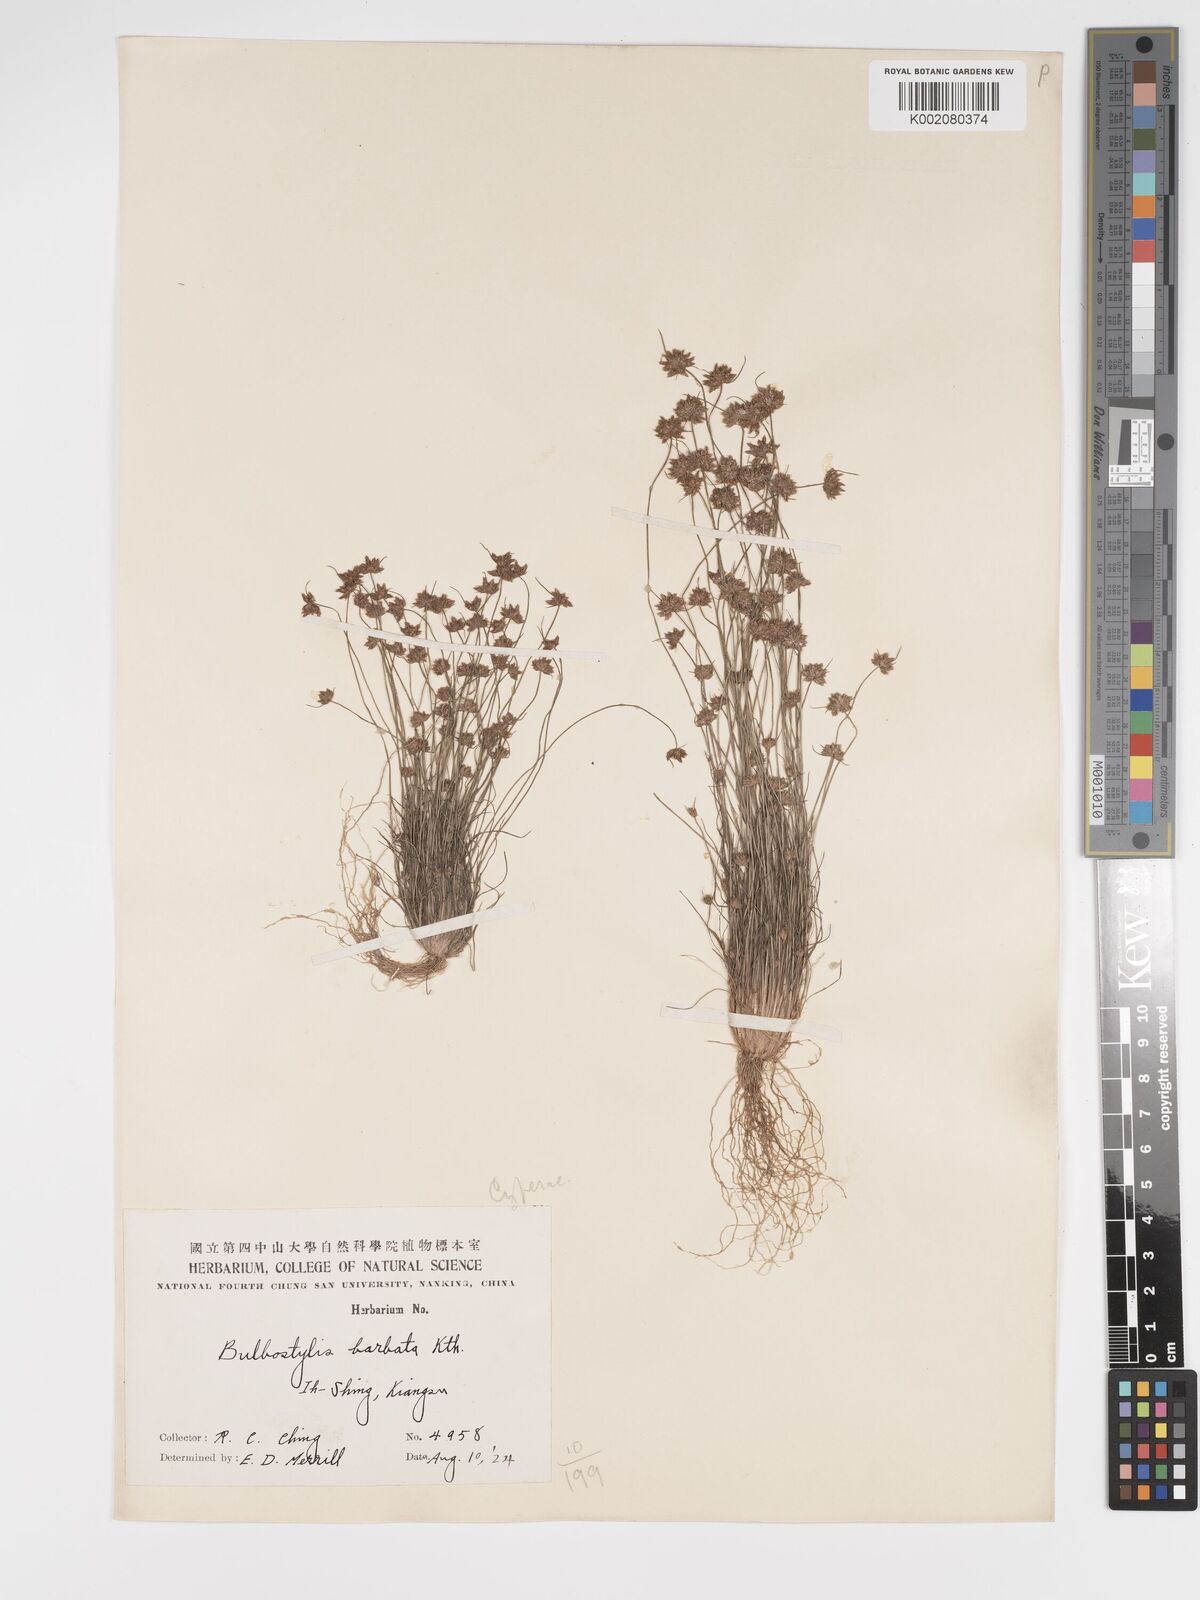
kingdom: Plantae
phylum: Tracheophyta
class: Liliopsida
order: Poales
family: Cyperaceae
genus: Bulbostylis
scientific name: Bulbostylis barbata
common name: Watergrass
